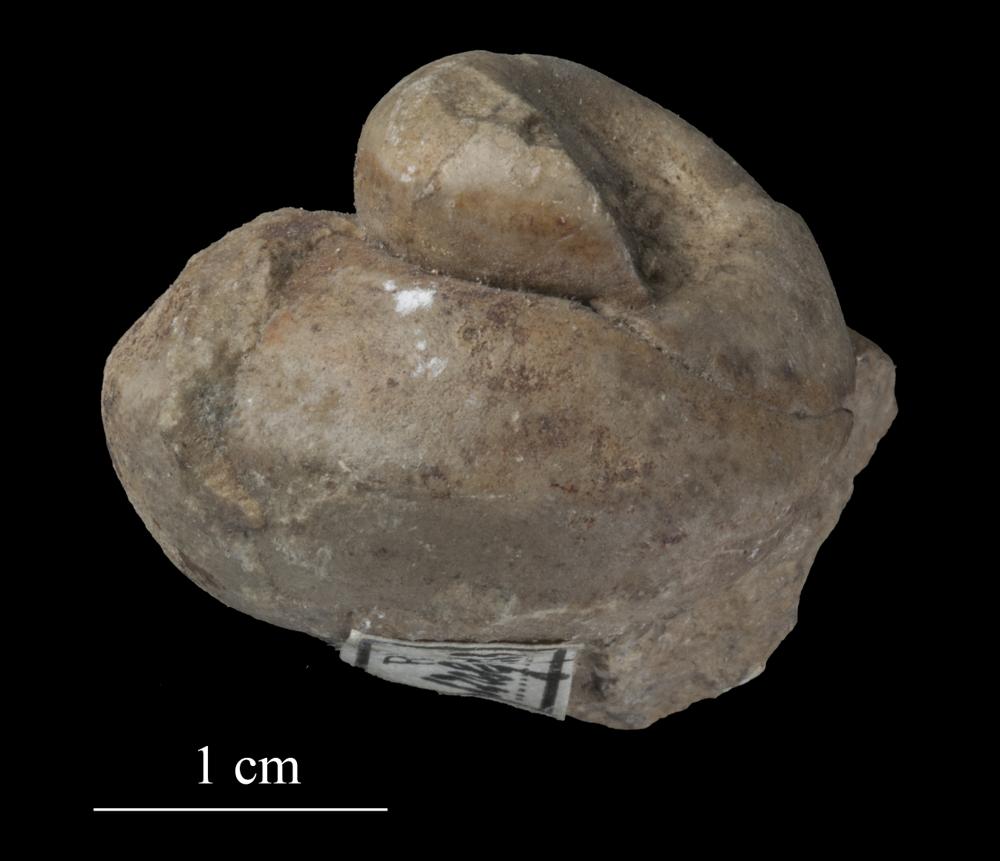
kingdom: Animalia
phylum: Mollusca
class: Gastropoda
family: Euomphalidae
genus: Euomphalopterus
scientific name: Euomphalopterus
